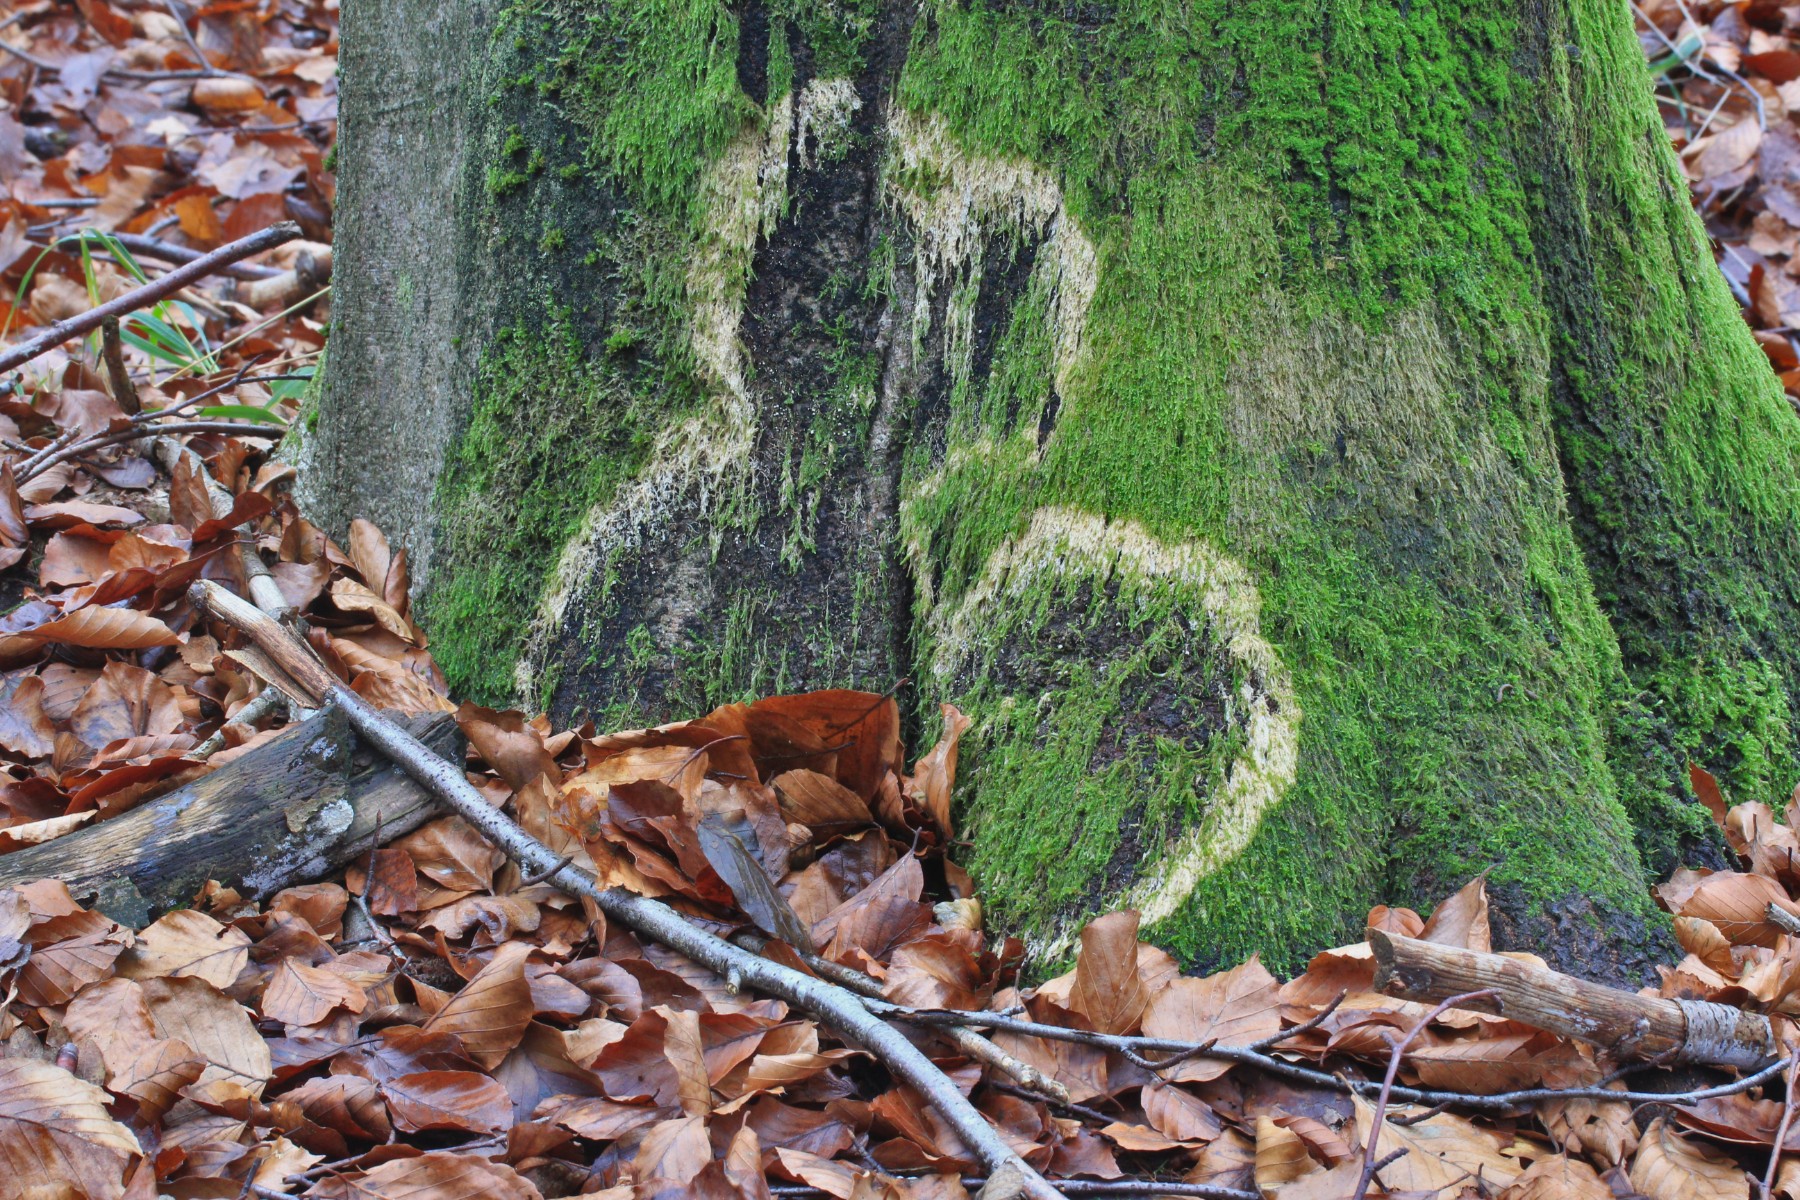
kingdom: Fungi
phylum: Basidiomycota
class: Agaricomycetes
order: Agaricales
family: Chromocyphellaceae
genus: Chromocyphella
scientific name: Chromocyphella muscicola
